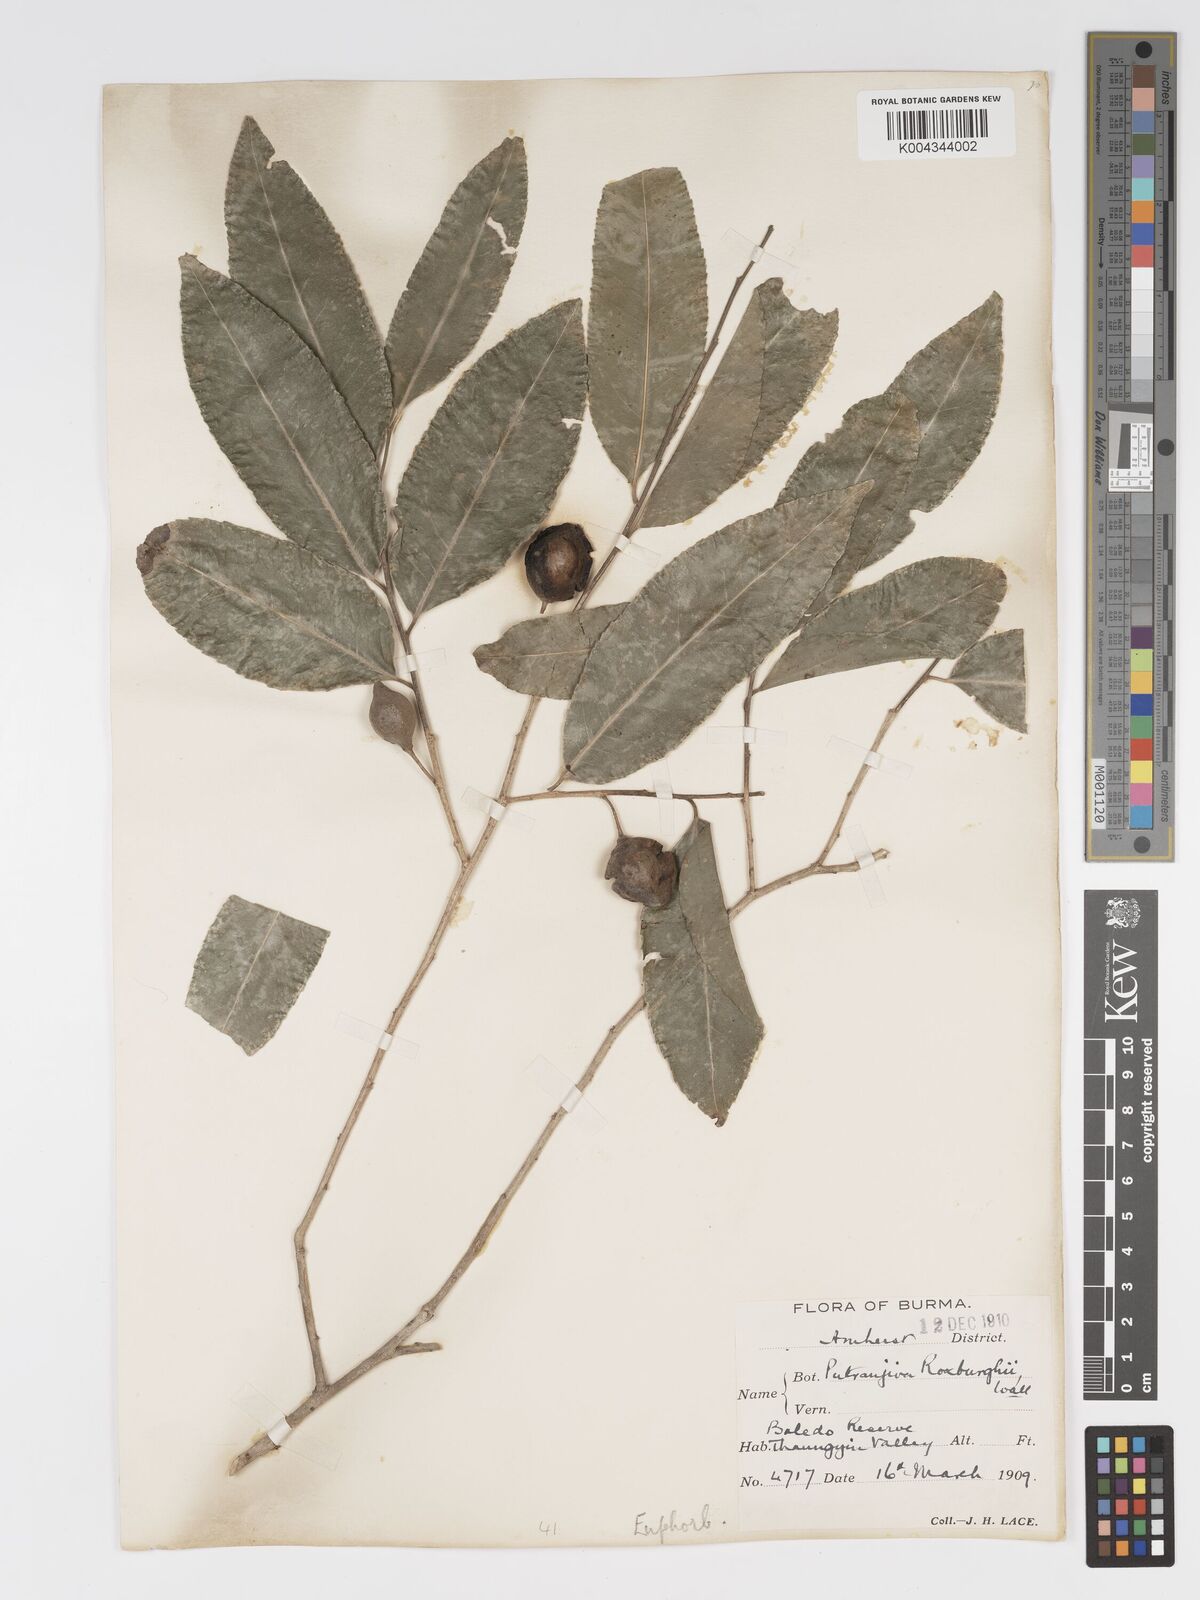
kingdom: Plantae
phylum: Tracheophyta
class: Magnoliopsida
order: Malpighiales
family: Putranjivaceae
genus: Putranjiva
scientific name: Putranjiva roxburghii
